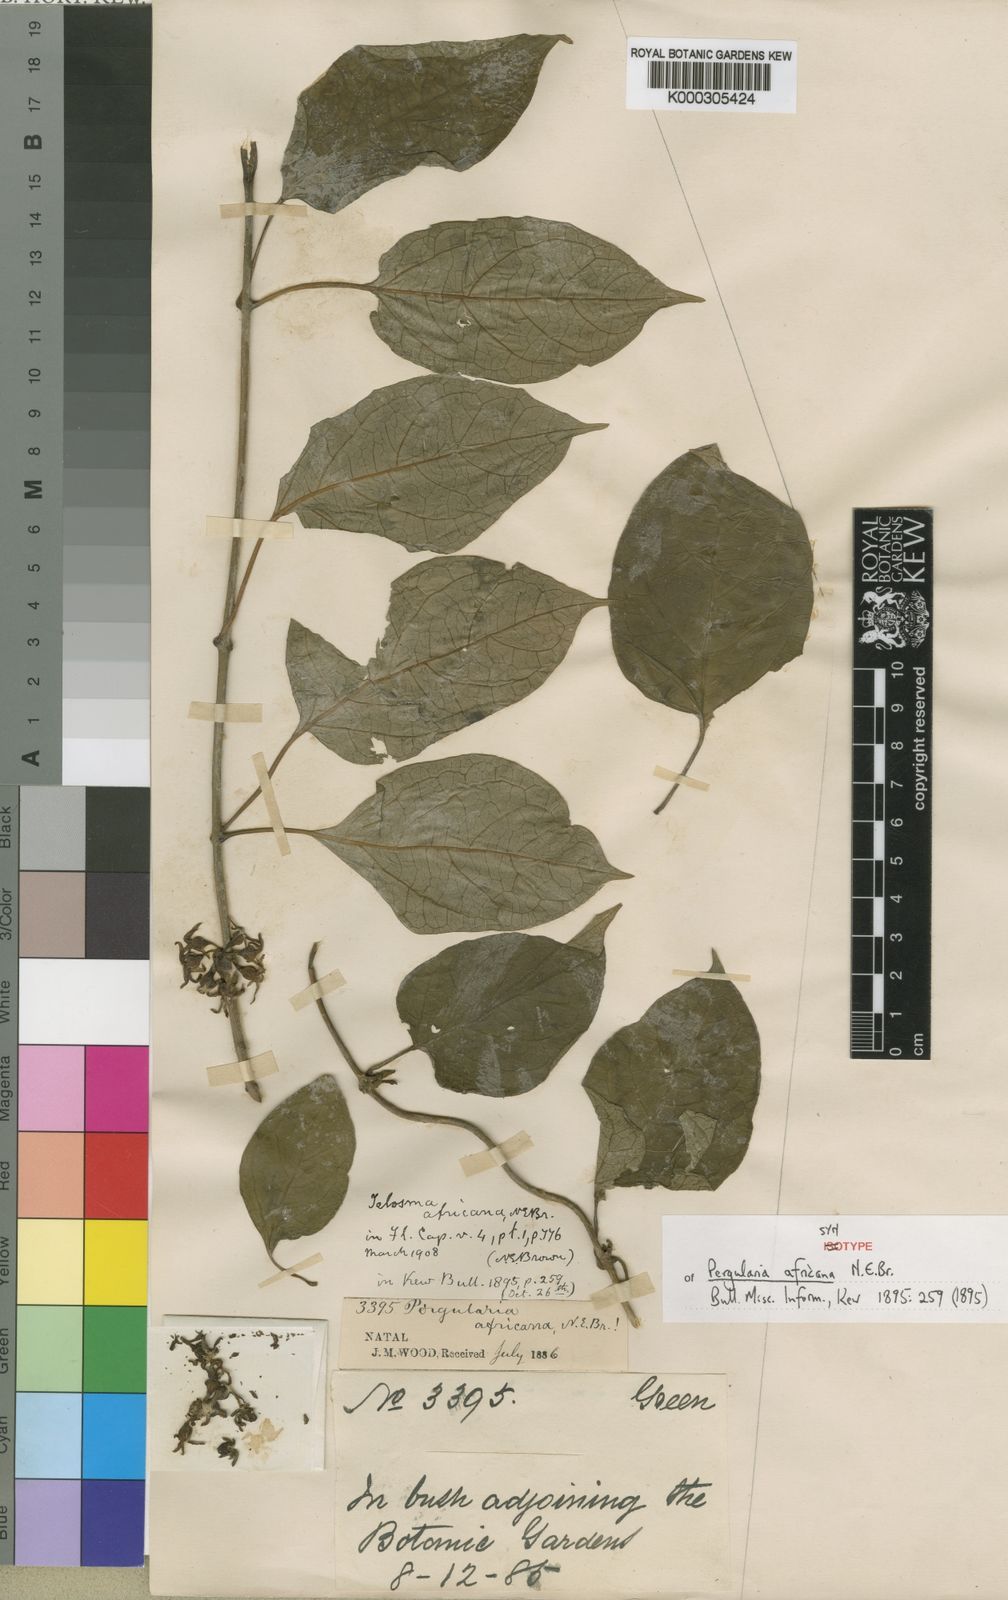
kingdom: Plantae
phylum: Tracheophyta
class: Magnoliopsida
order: Gentianales
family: Apocynaceae
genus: Telosma
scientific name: Telosma africana
